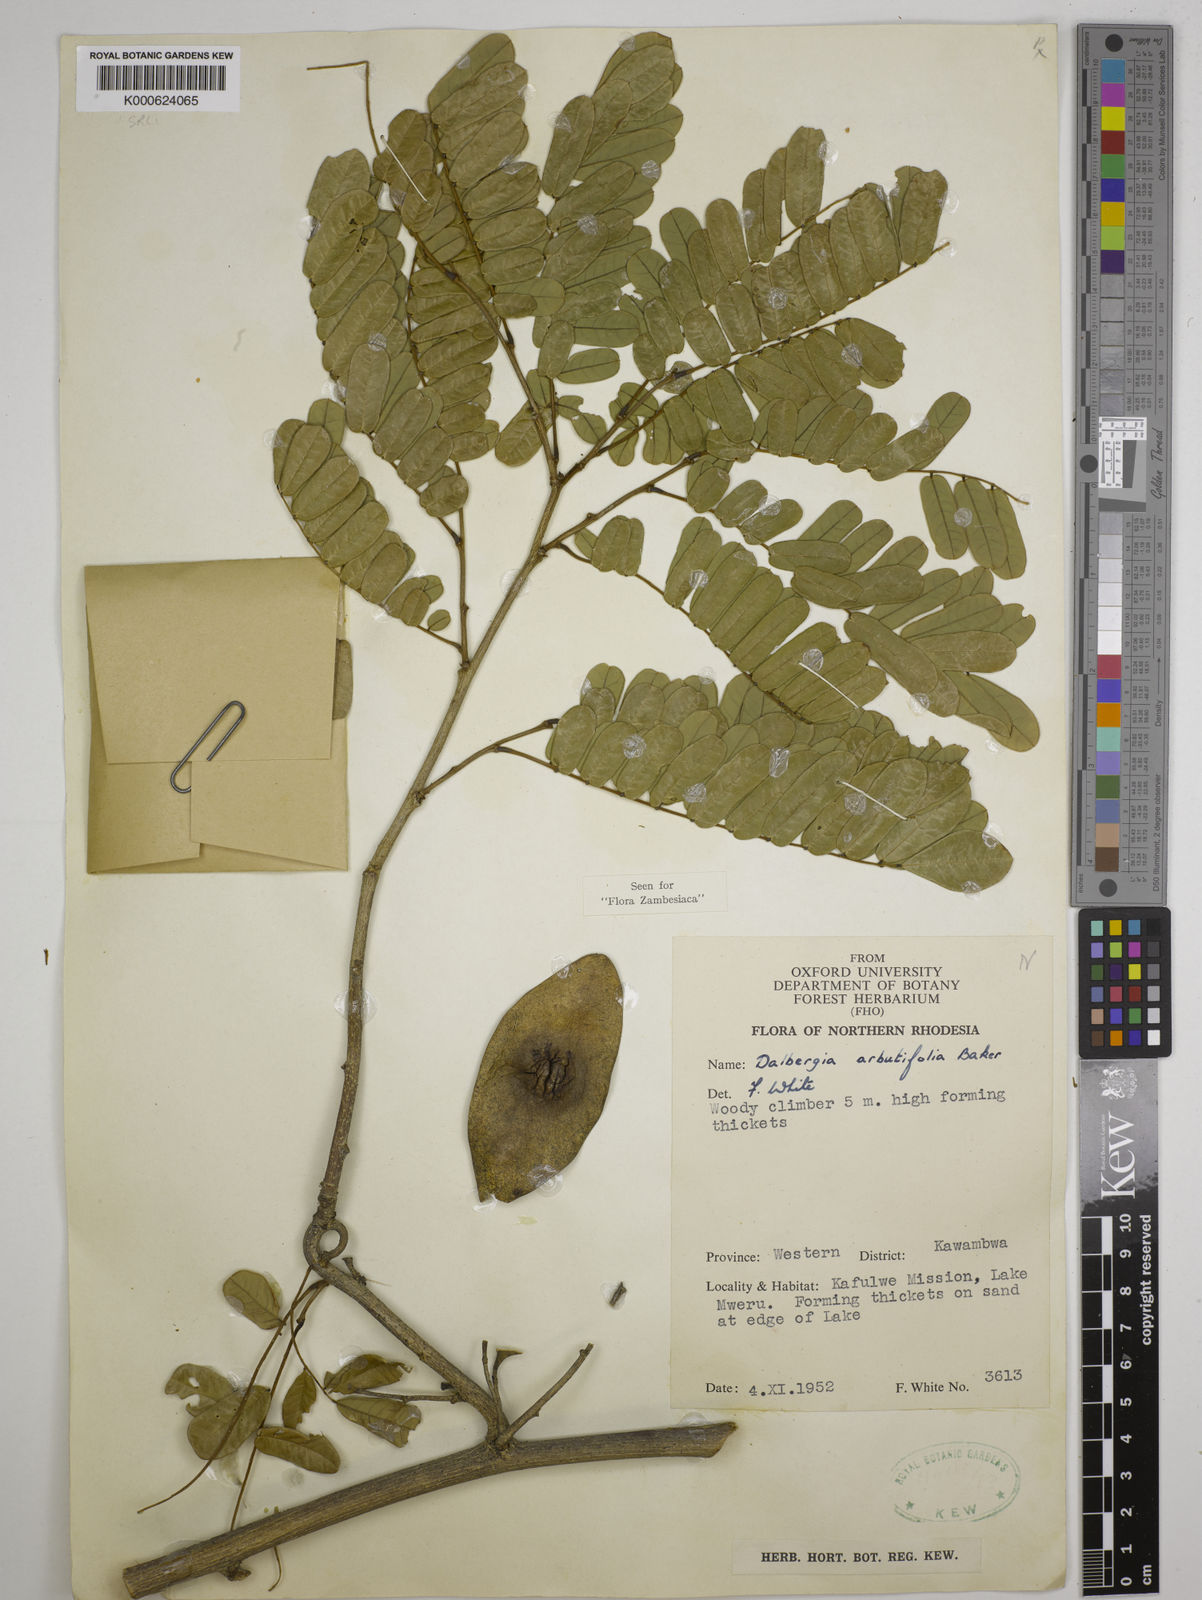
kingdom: Plantae
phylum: Tracheophyta
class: Magnoliopsida
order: Fabales
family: Fabaceae
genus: Dalbergia
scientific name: Dalbergia arbutifolia
